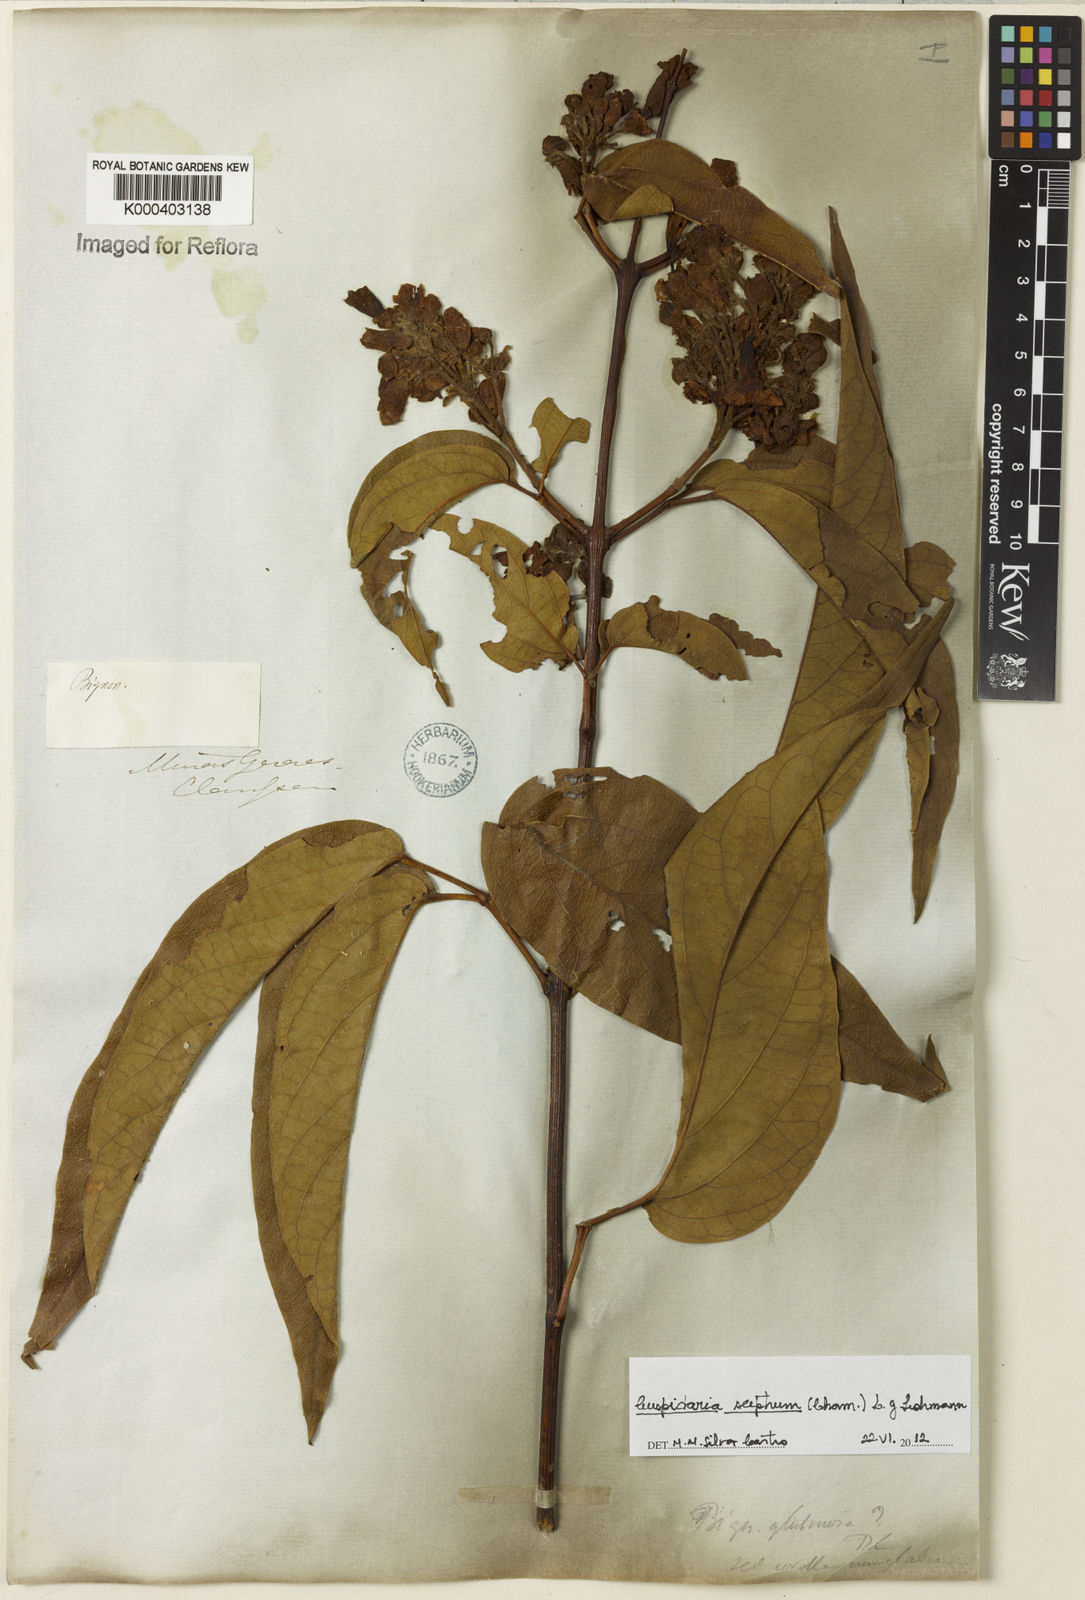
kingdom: Plantae
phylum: Tracheophyta
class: Magnoliopsida
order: Lamiales
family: Bignoniaceae
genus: Cuspidaria
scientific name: Cuspidaria sceptrum
